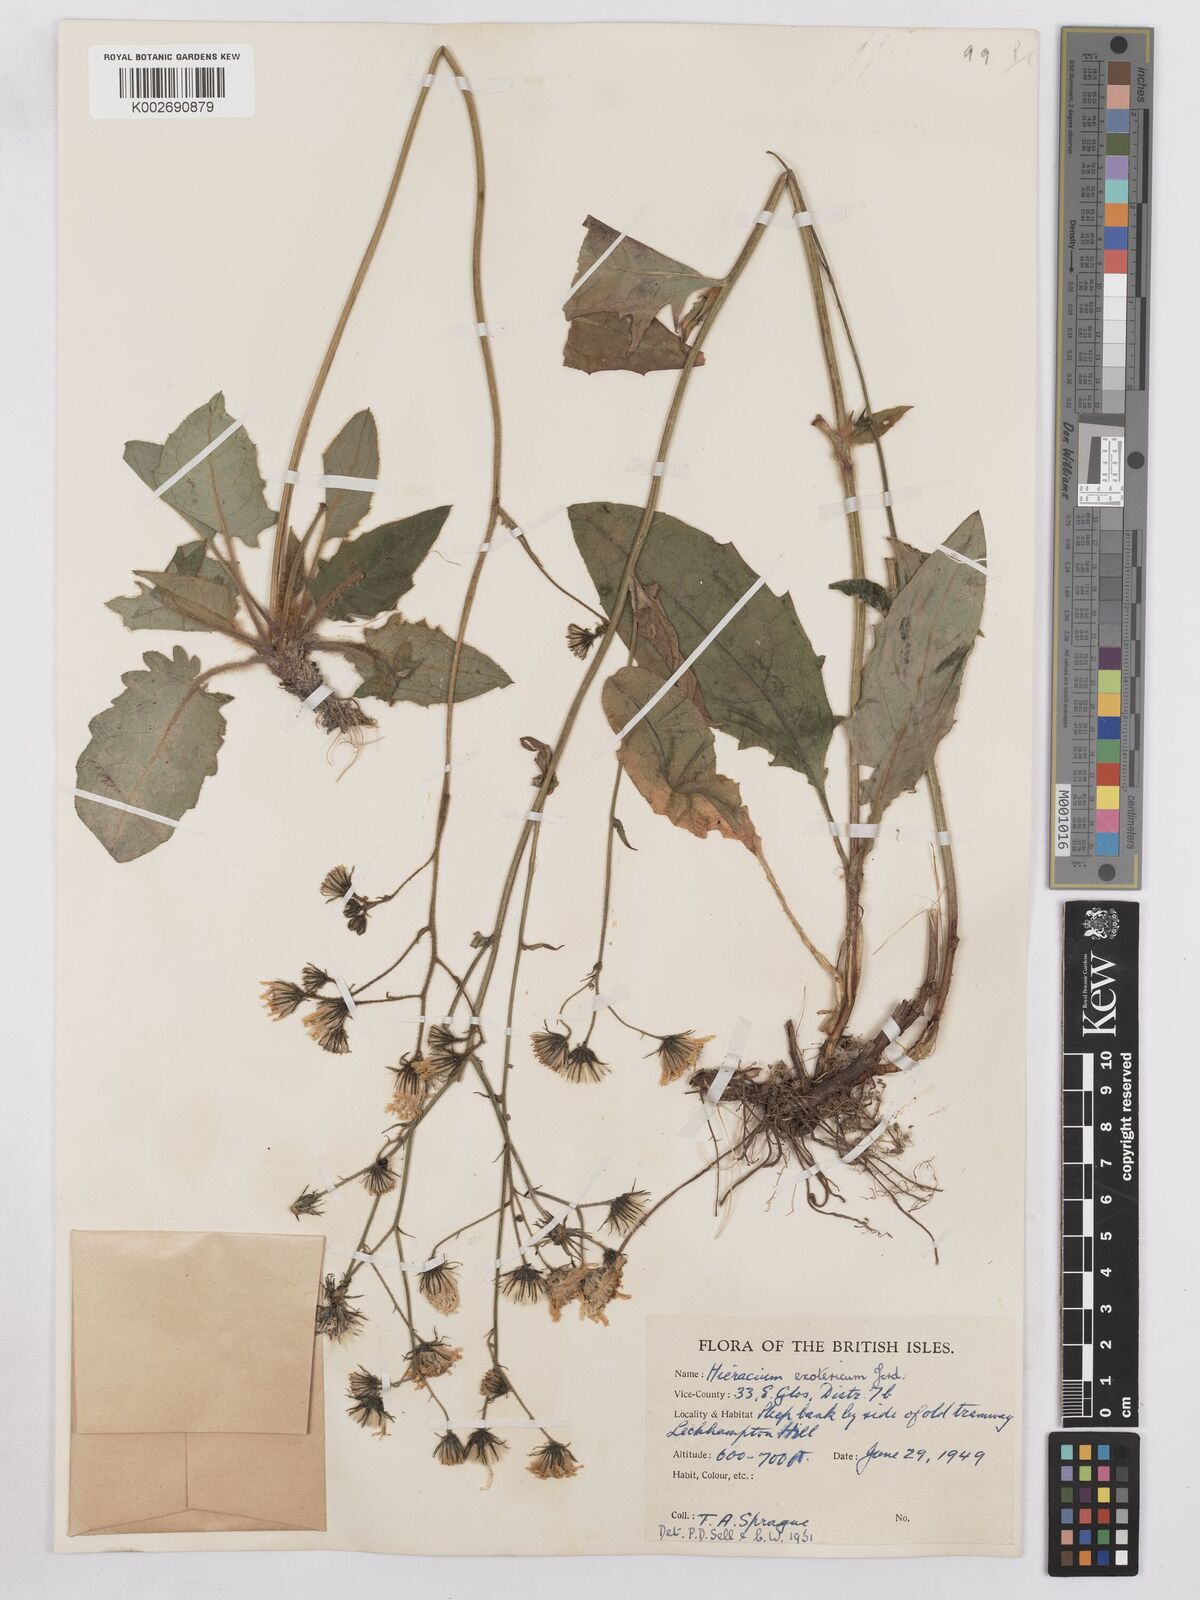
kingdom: Plantae
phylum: Tracheophyta
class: Magnoliopsida
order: Asterales
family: Asteraceae
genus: Hieracium
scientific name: Hieracium murorum
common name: Wall hawkweed
